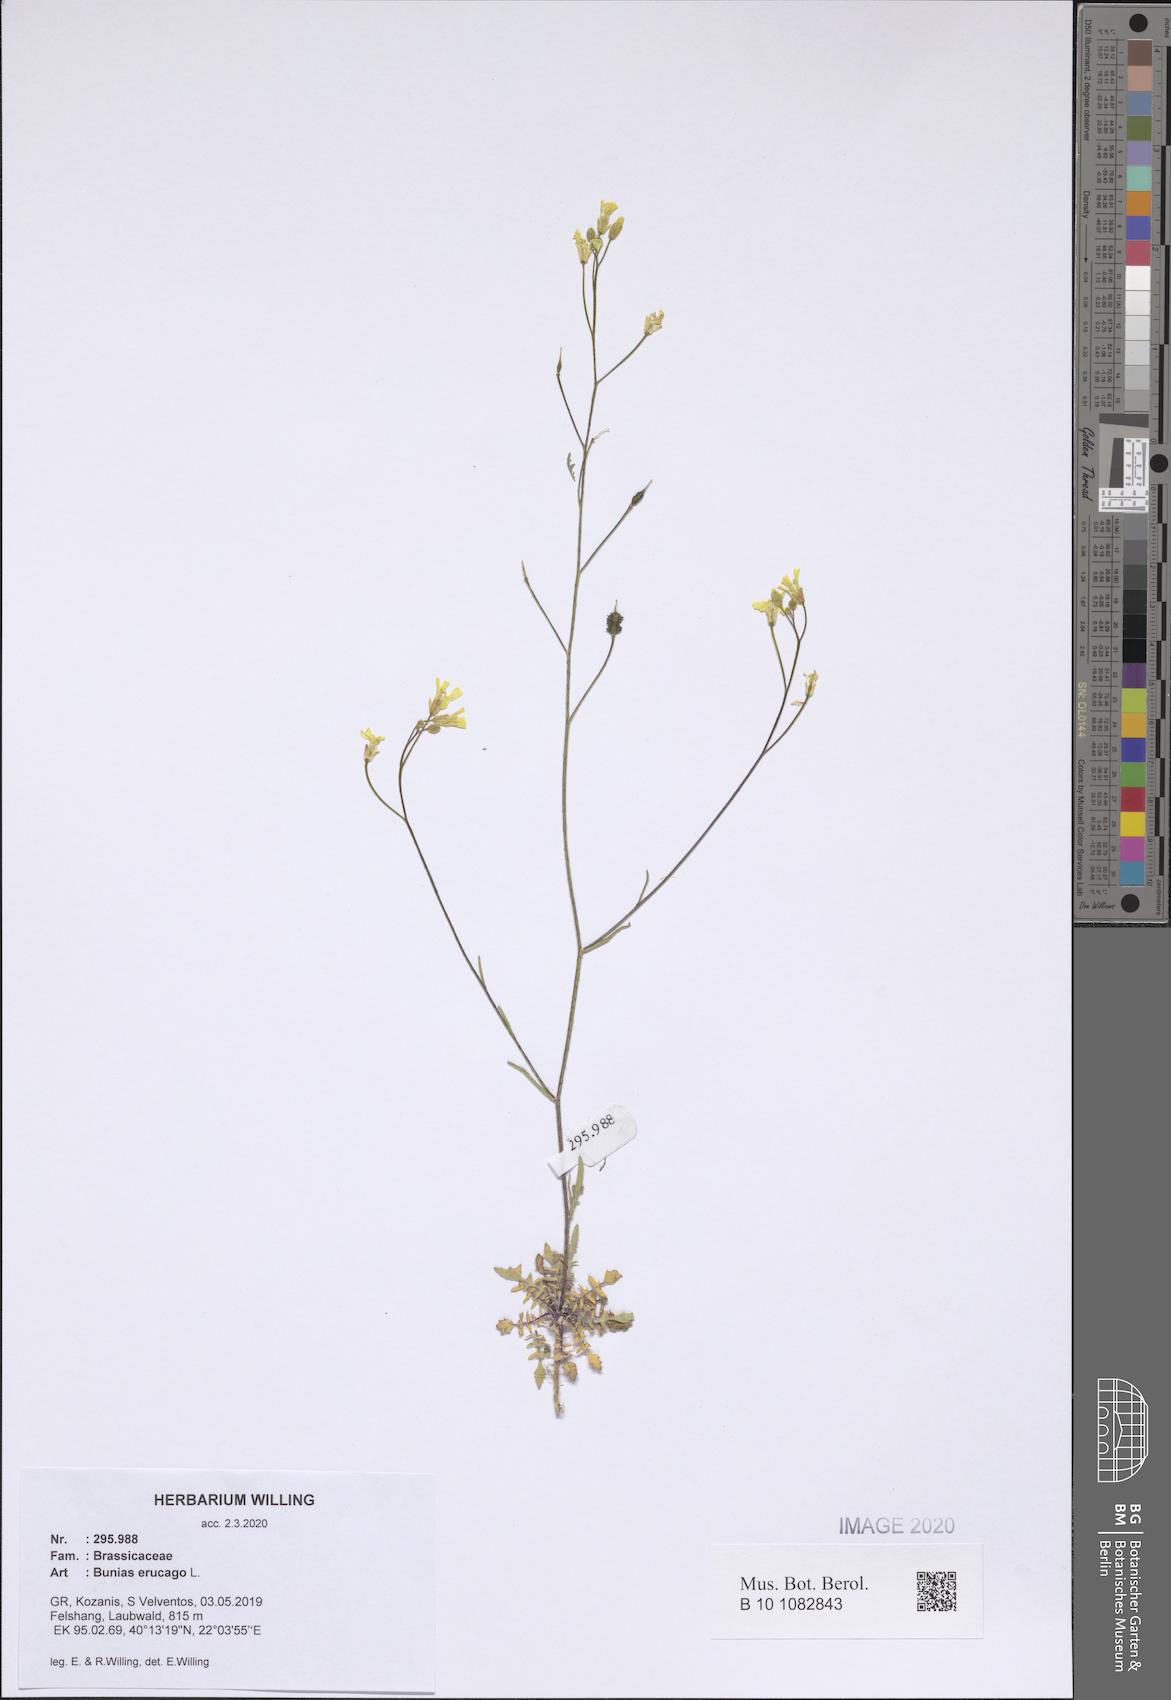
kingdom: Plantae
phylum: Tracheophyta
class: Magnoliopsida
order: Brassicales
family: Brassicaceae
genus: Bunias
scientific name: Bunias erucago
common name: Southern warty-cabbage
